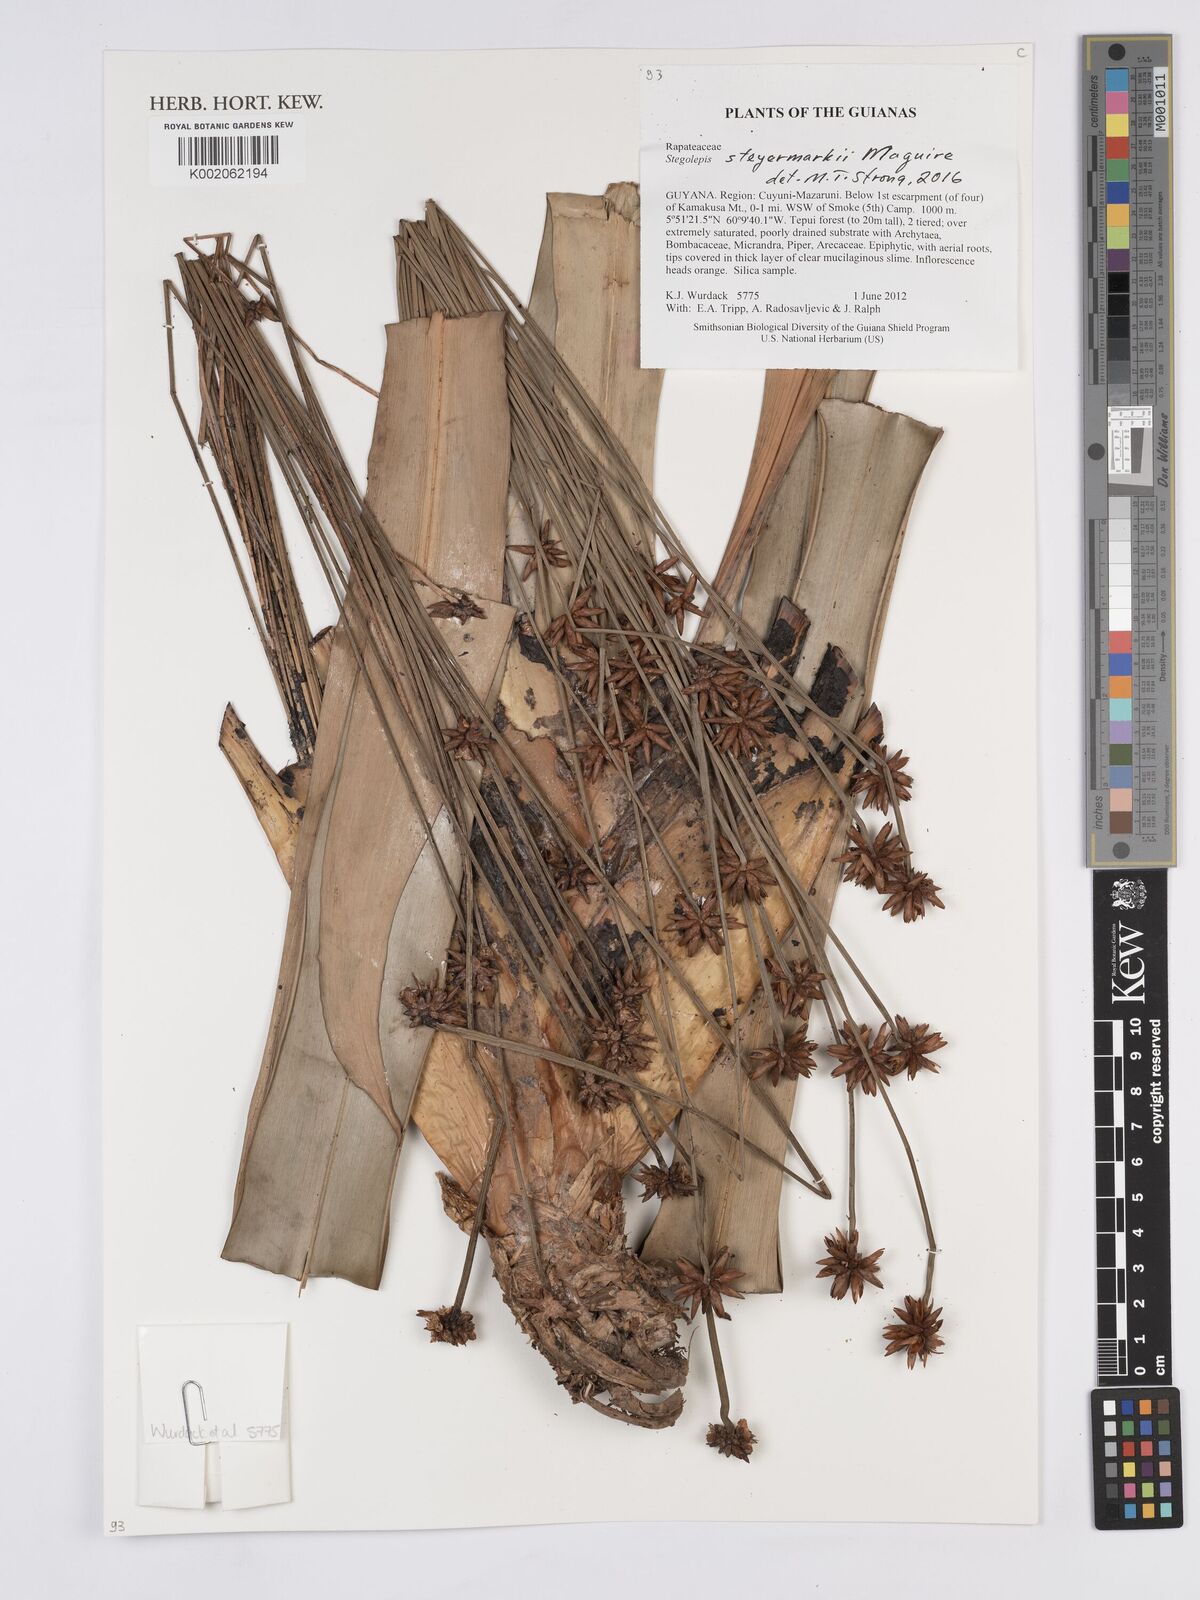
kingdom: Plantae
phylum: Tracheophyta
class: Liliopsida
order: Poales
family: Rapateaceae
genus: Stegolepis
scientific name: Stegolepis steyermarkii
